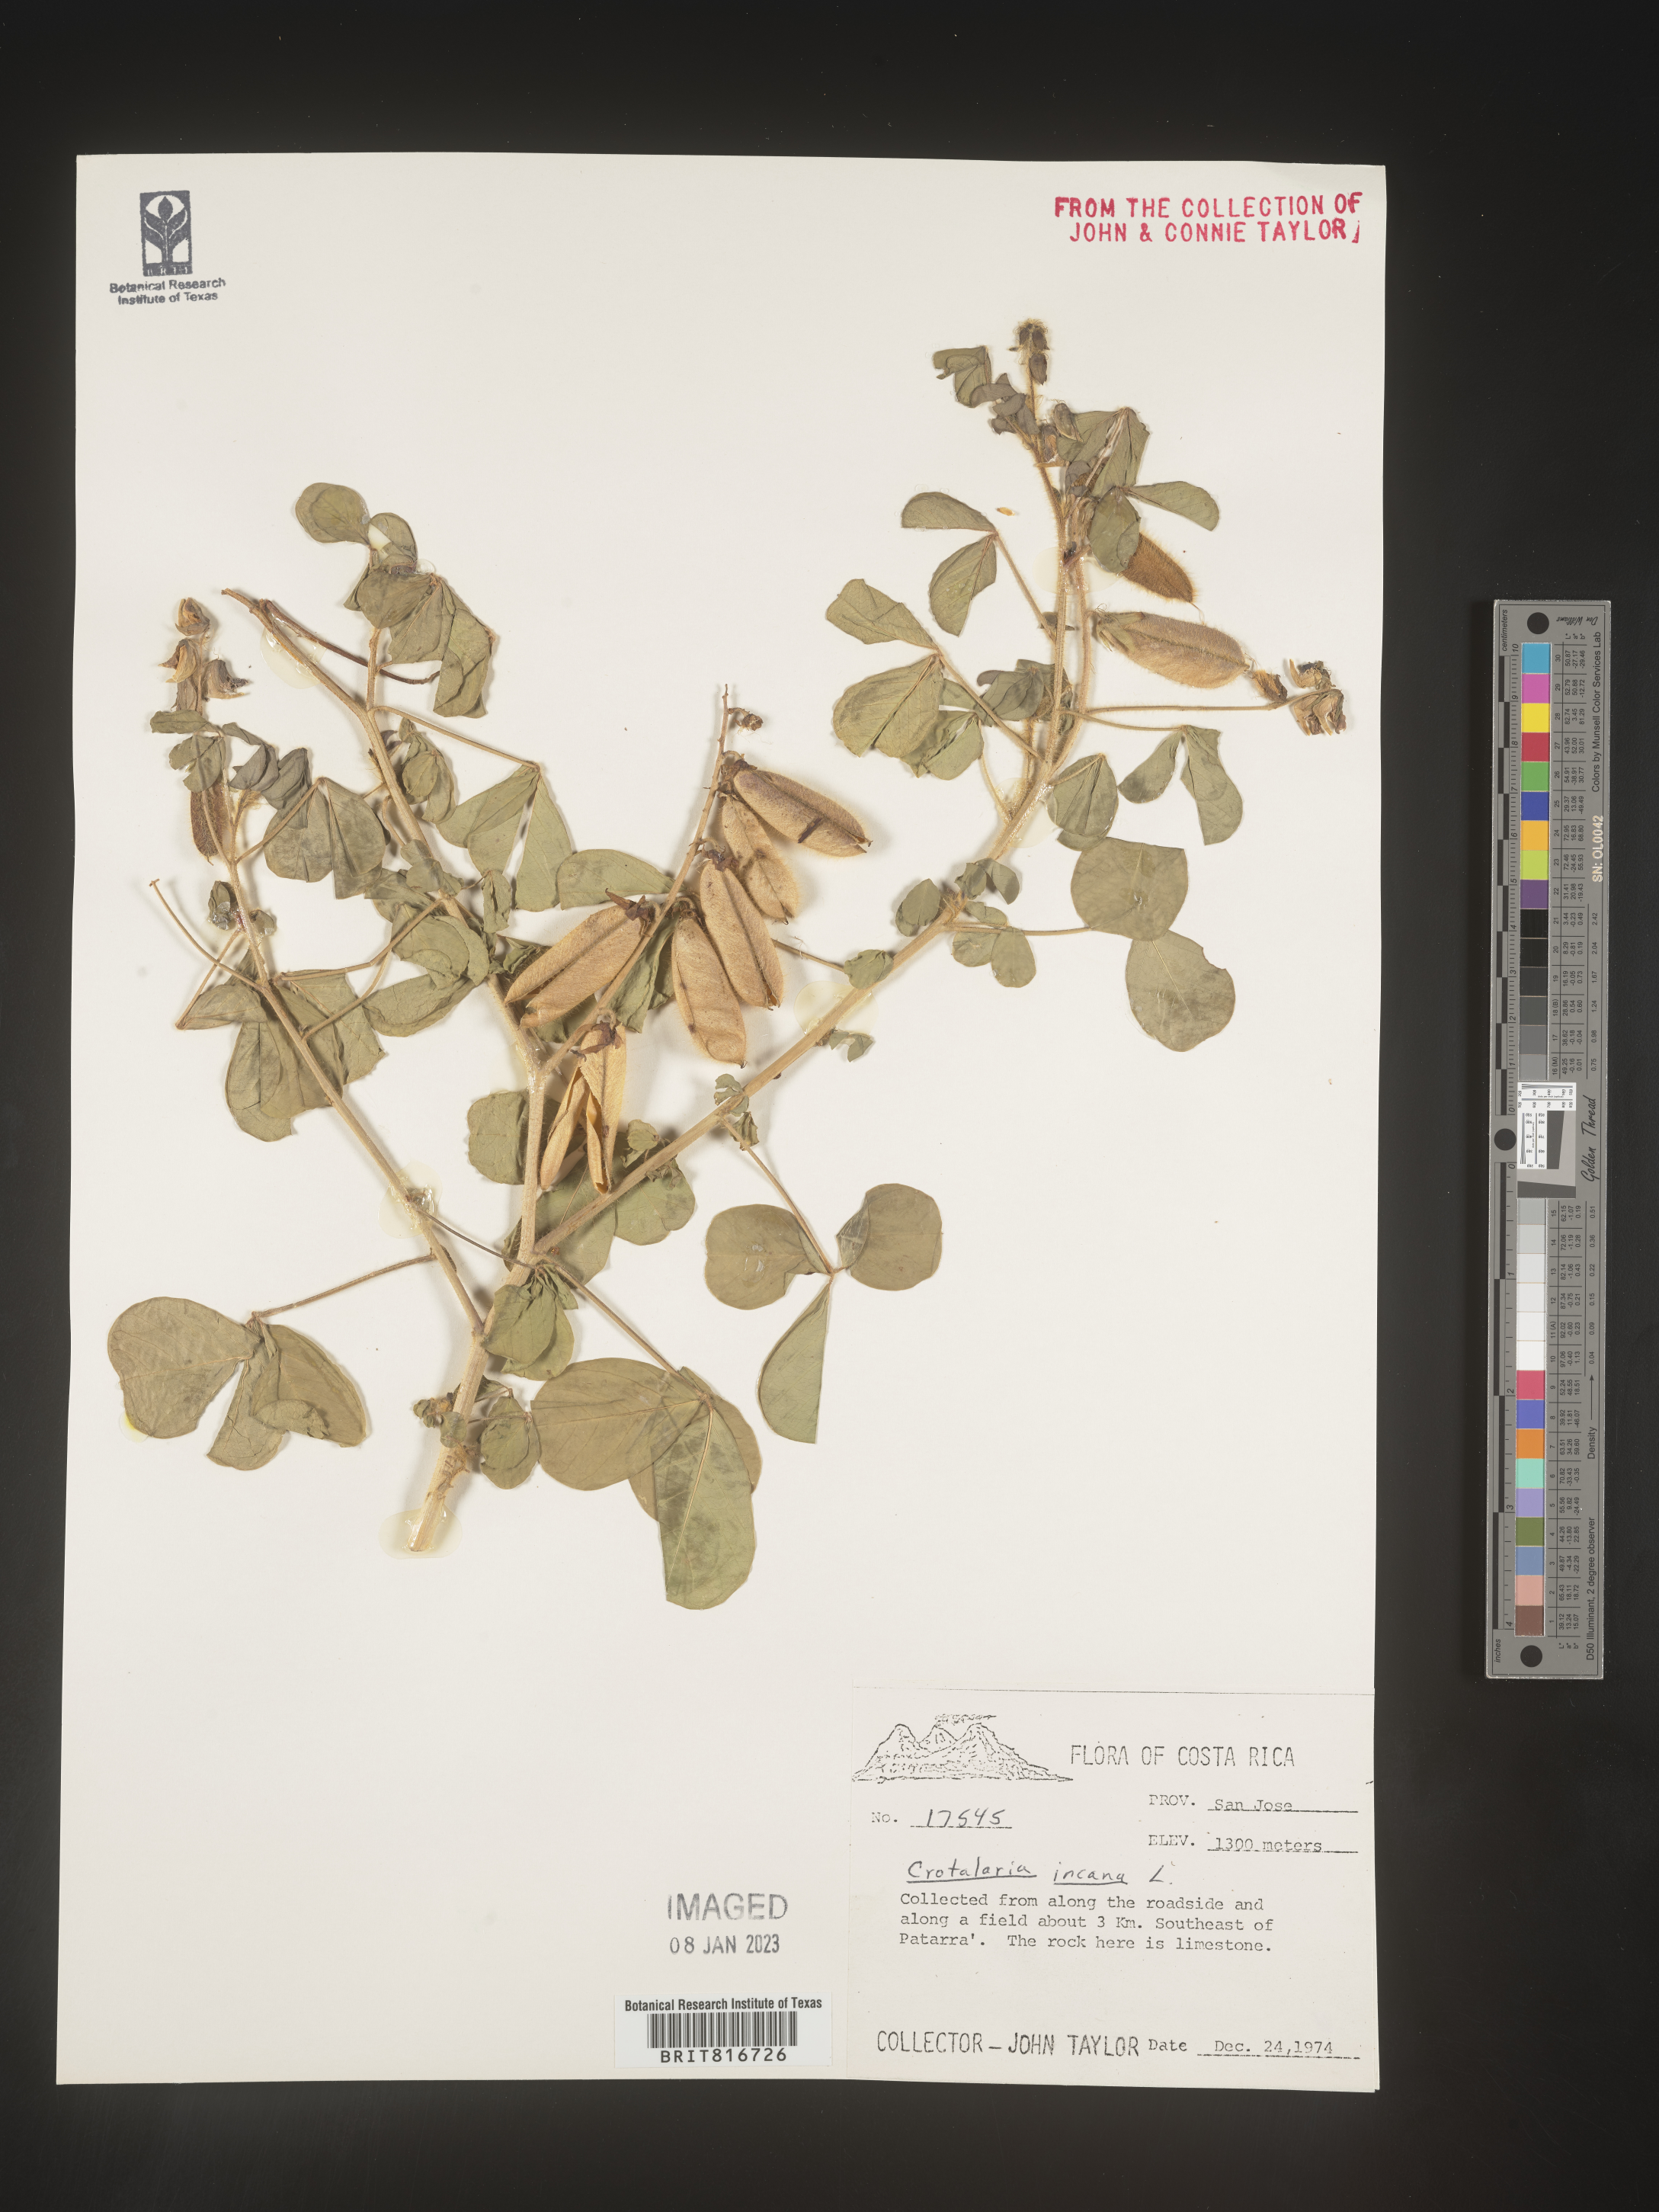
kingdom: Plantae
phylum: Tracheophyta
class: Magnoliopsida
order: Fabales
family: Fabaceae
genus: Crotalaria
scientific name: Crotalaria
